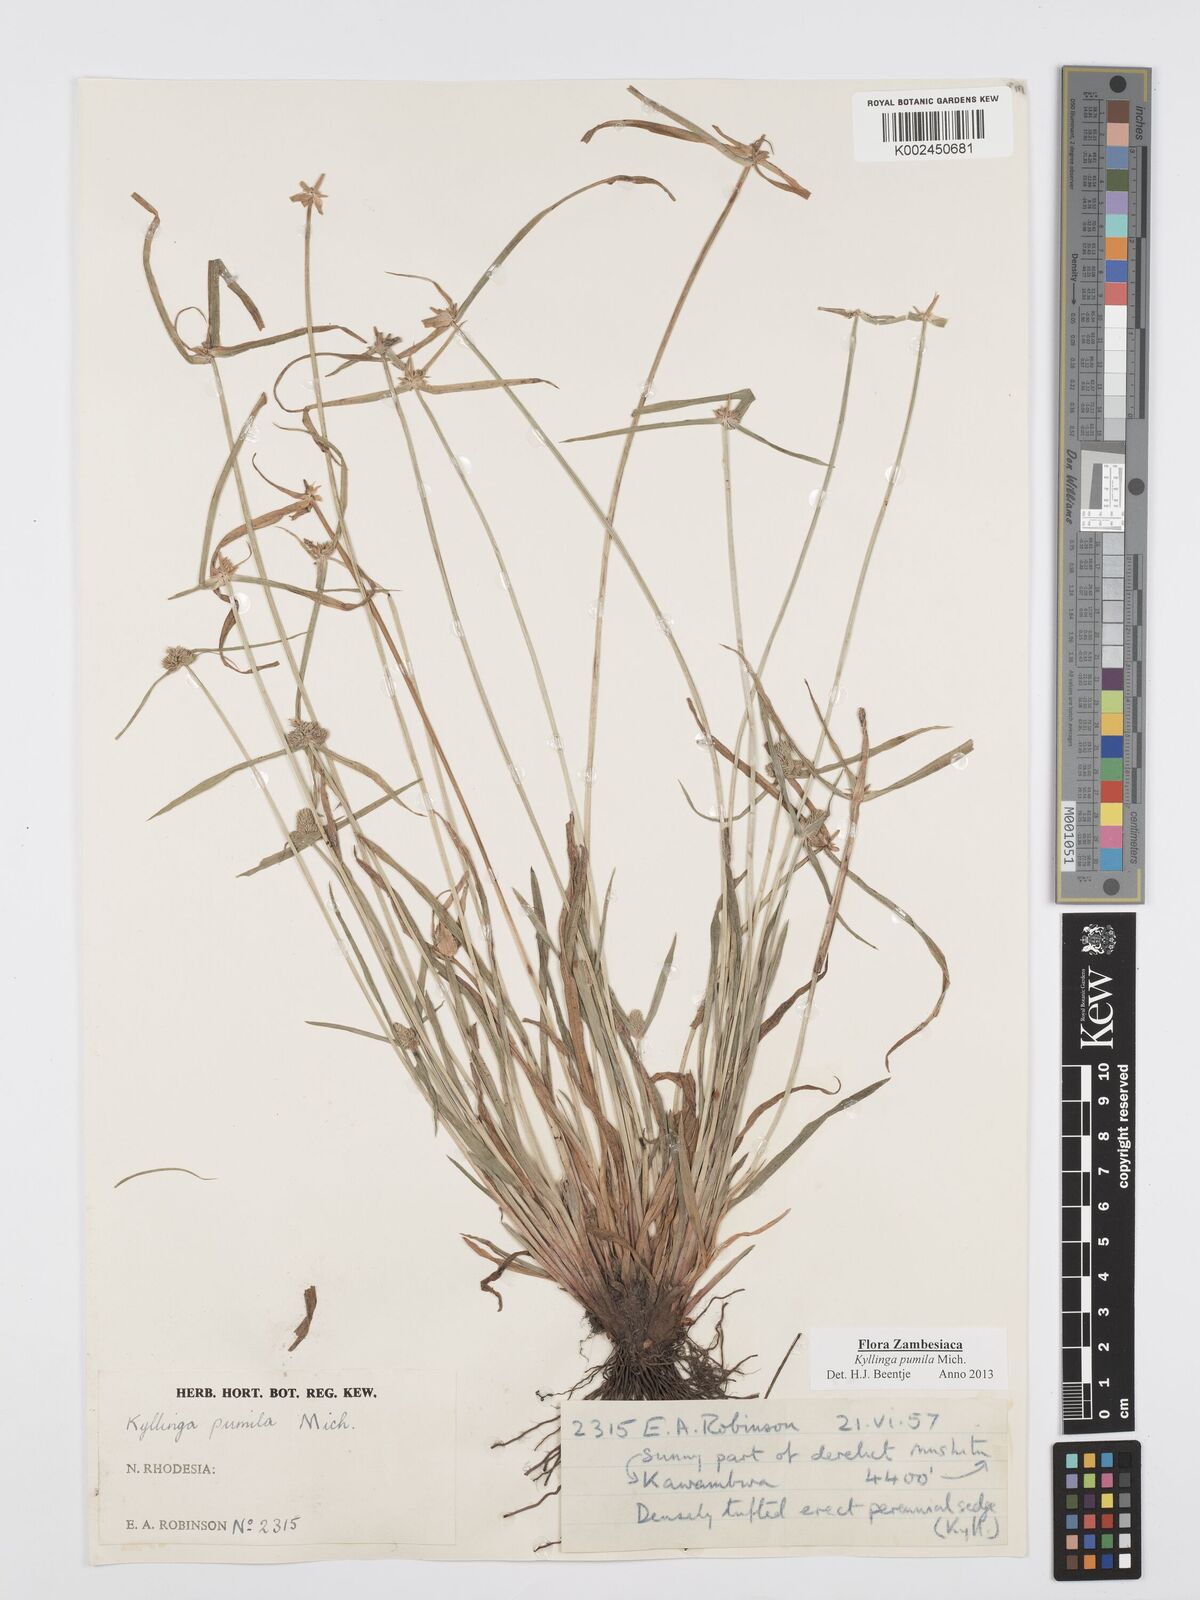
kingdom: Plantae
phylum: Tracheophyta
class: Liliopsida
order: Poales
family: Cyperaceae
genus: Cyperus
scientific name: Cyperus pumilus
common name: Low flatsedge
